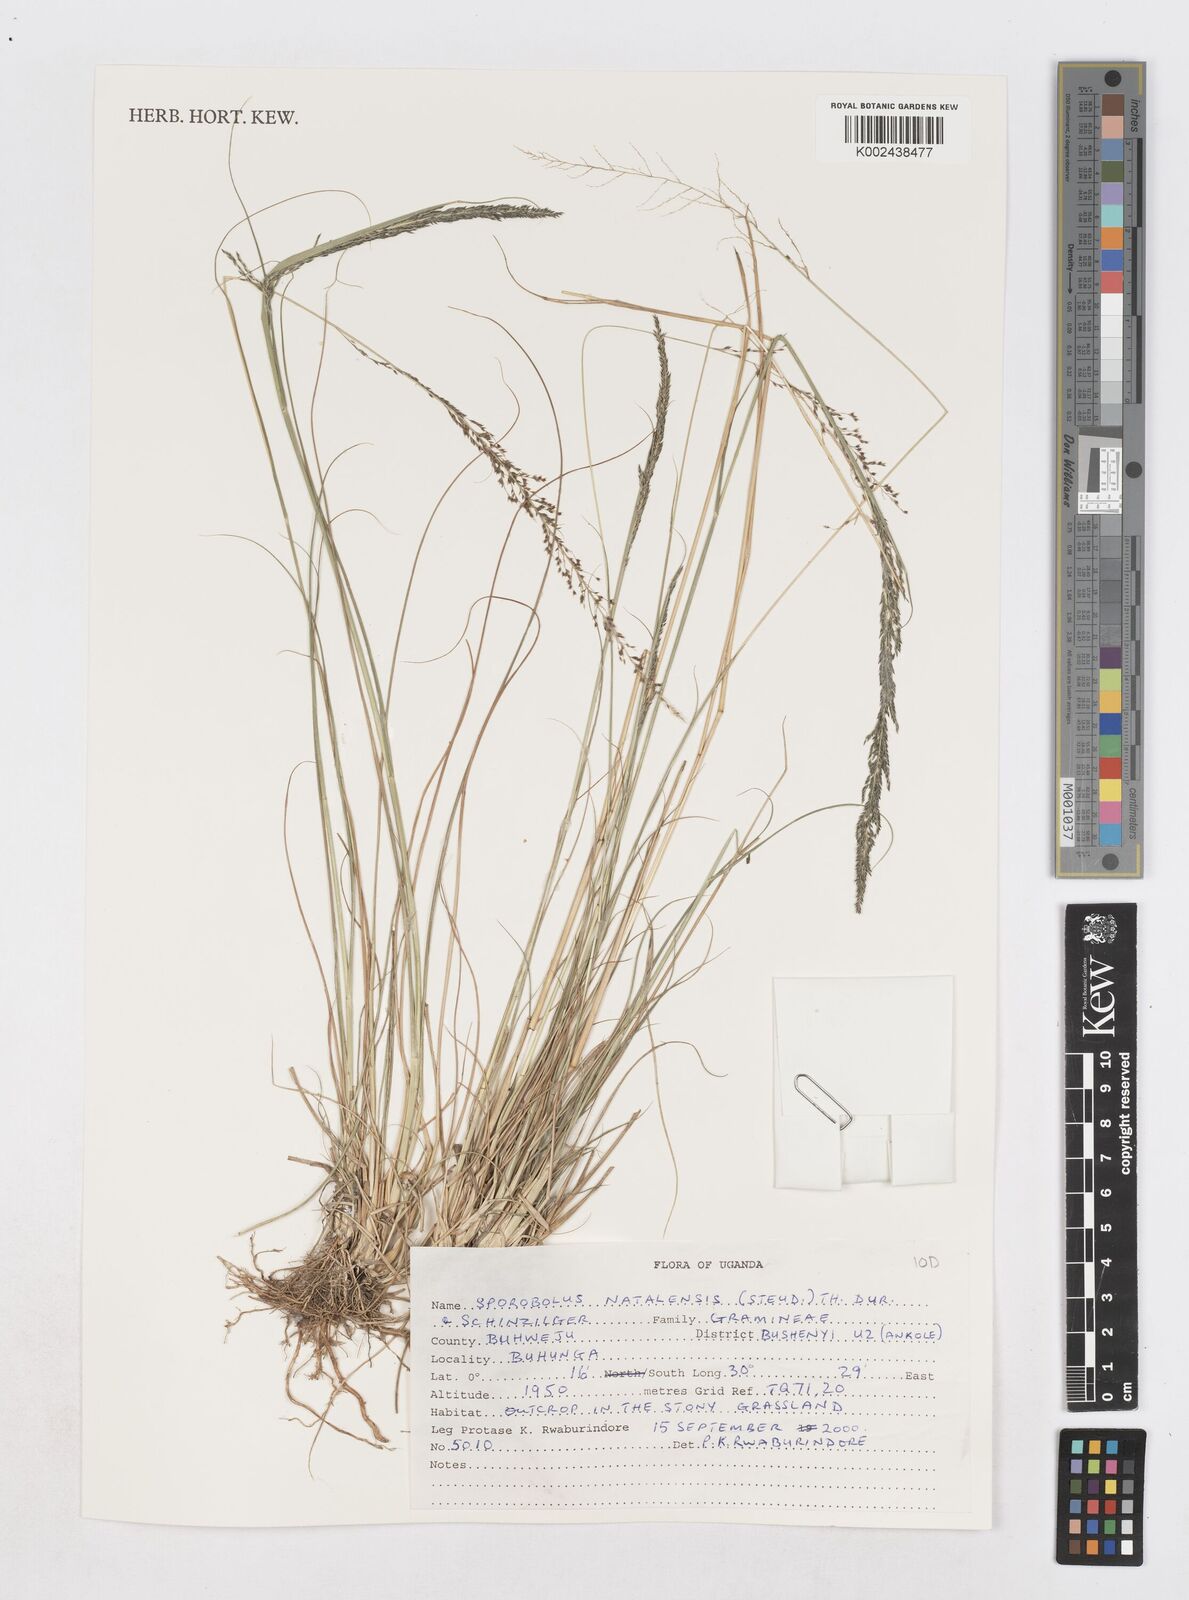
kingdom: Plantae
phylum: Tracheophyta
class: Liliopsida
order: Poales
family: Poaceae
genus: Sporobolus
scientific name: Sporobolus natalensis
